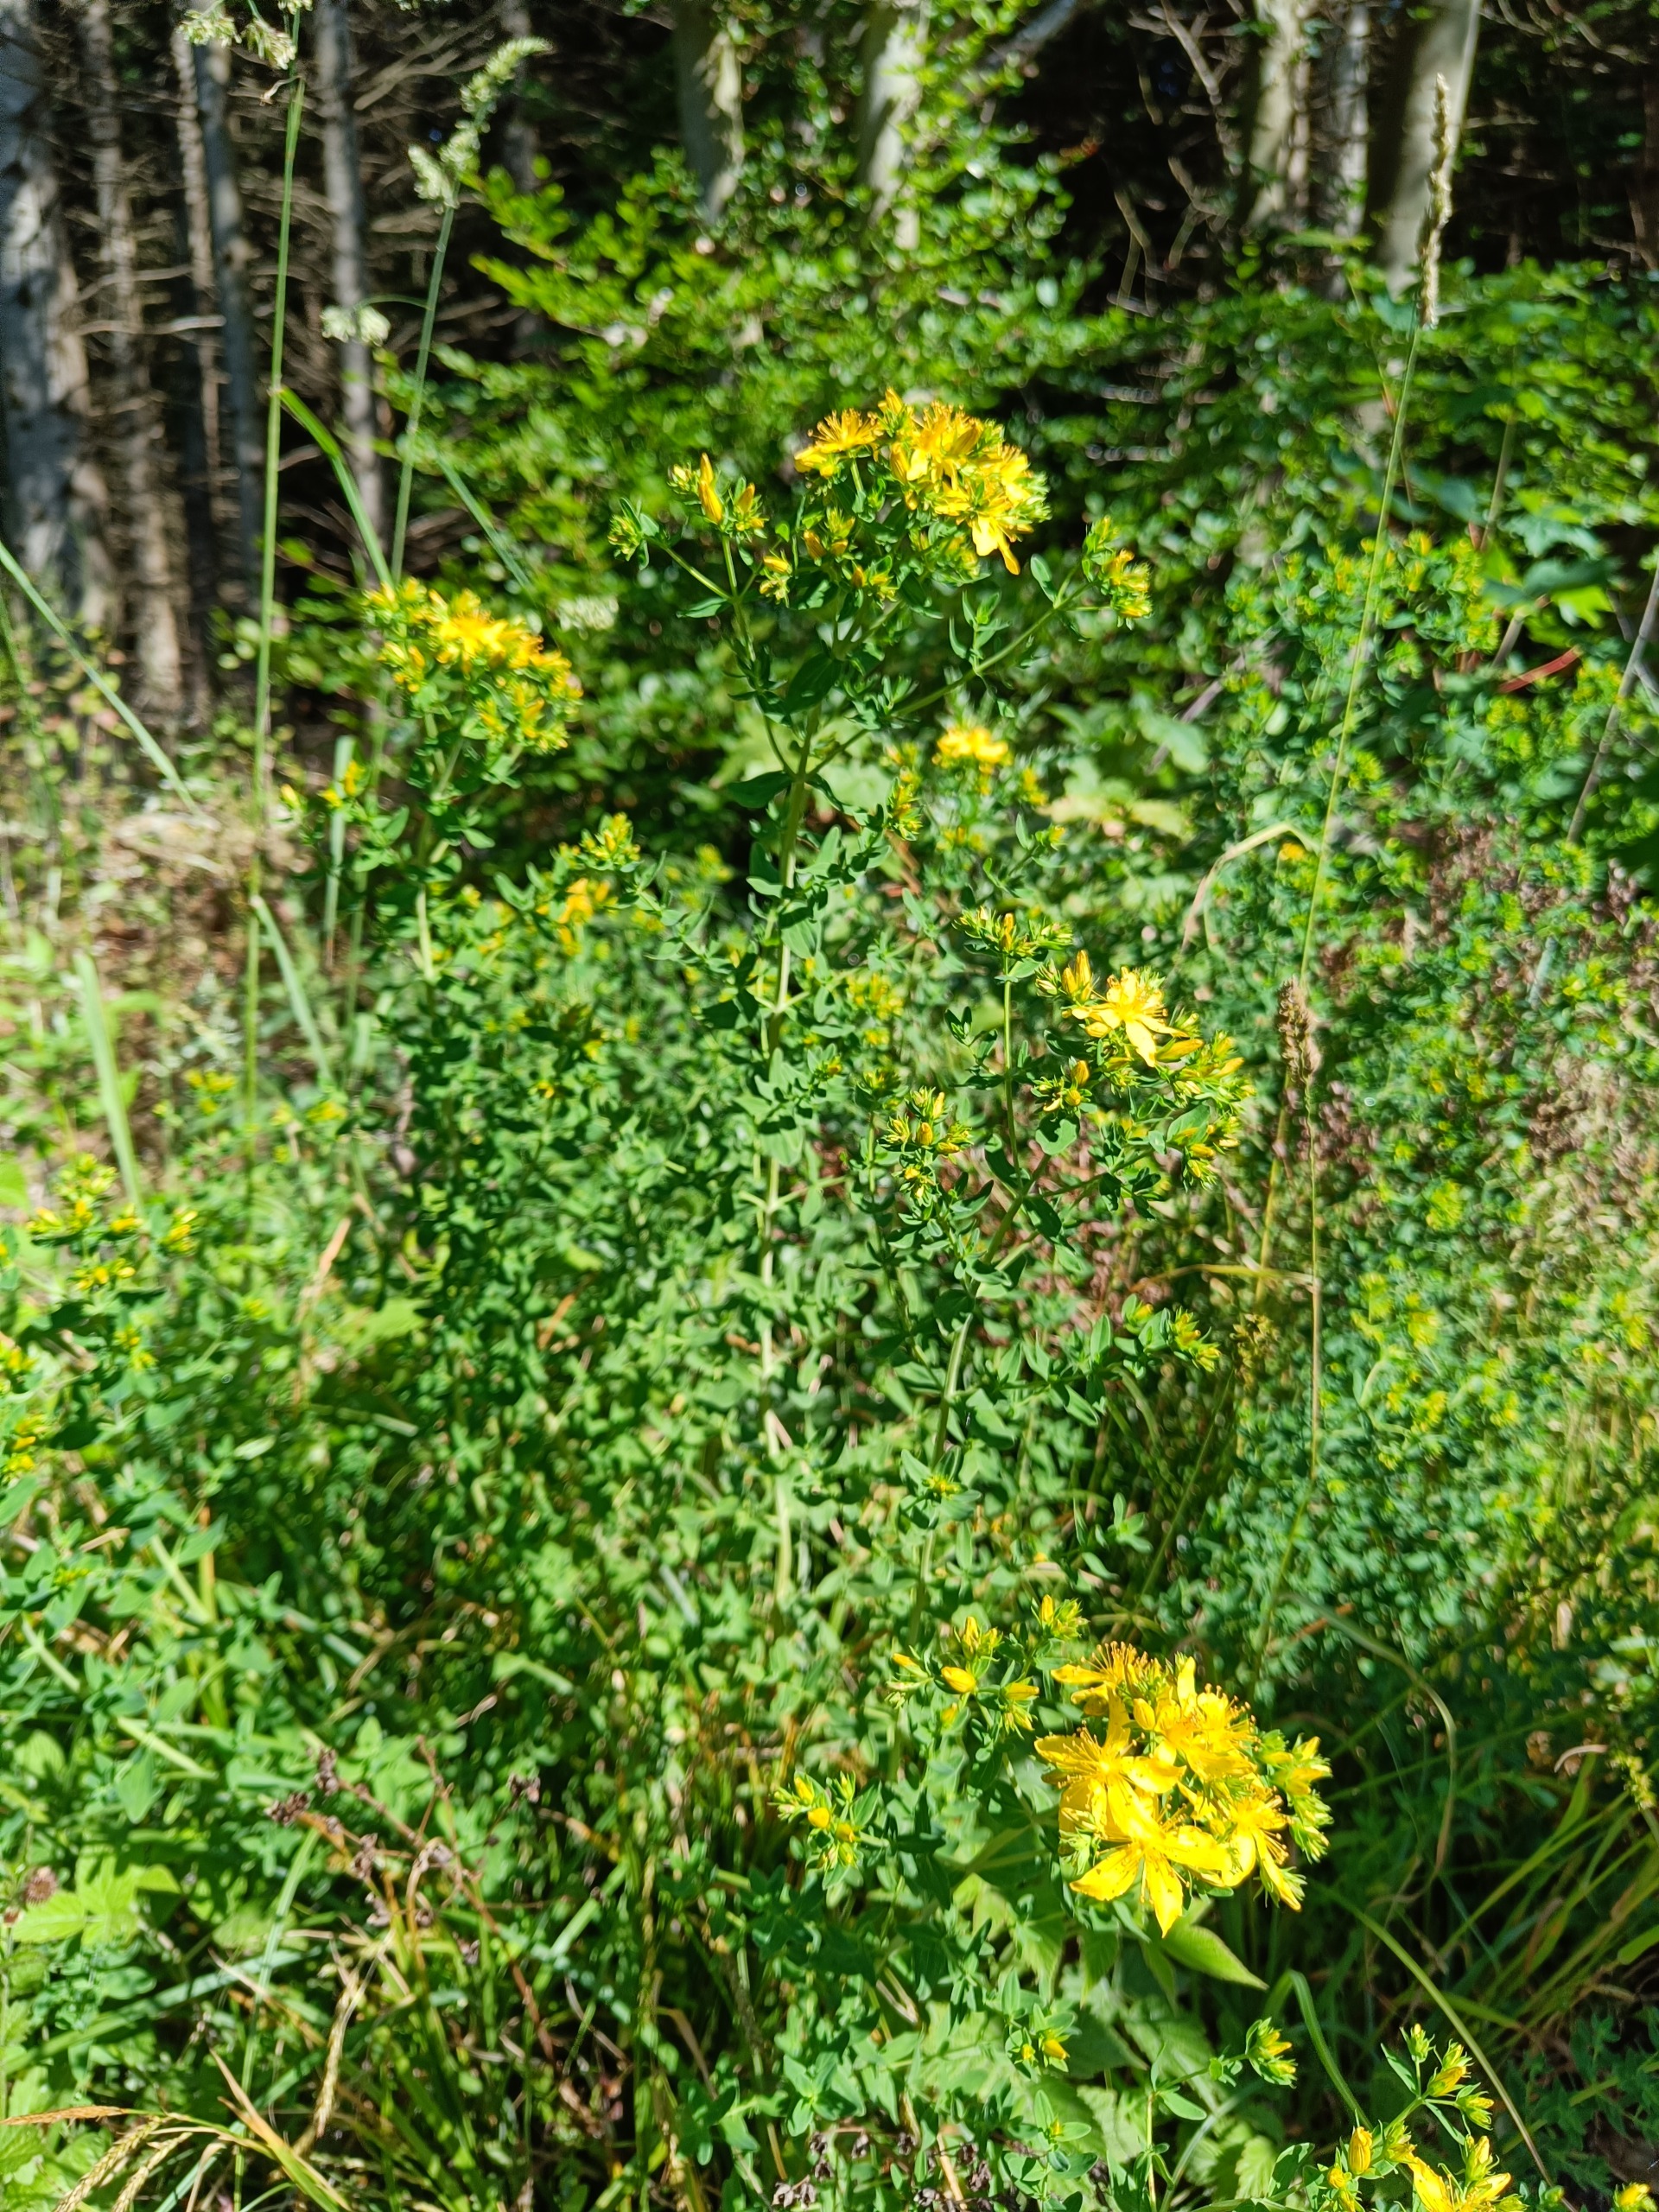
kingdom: Plantae
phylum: Tracheophyta
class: Magnoliopsida
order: Malpighiales
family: Hypericaceae
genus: Hypericum
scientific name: Hypericum perforatum
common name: Prikbladet perikon
